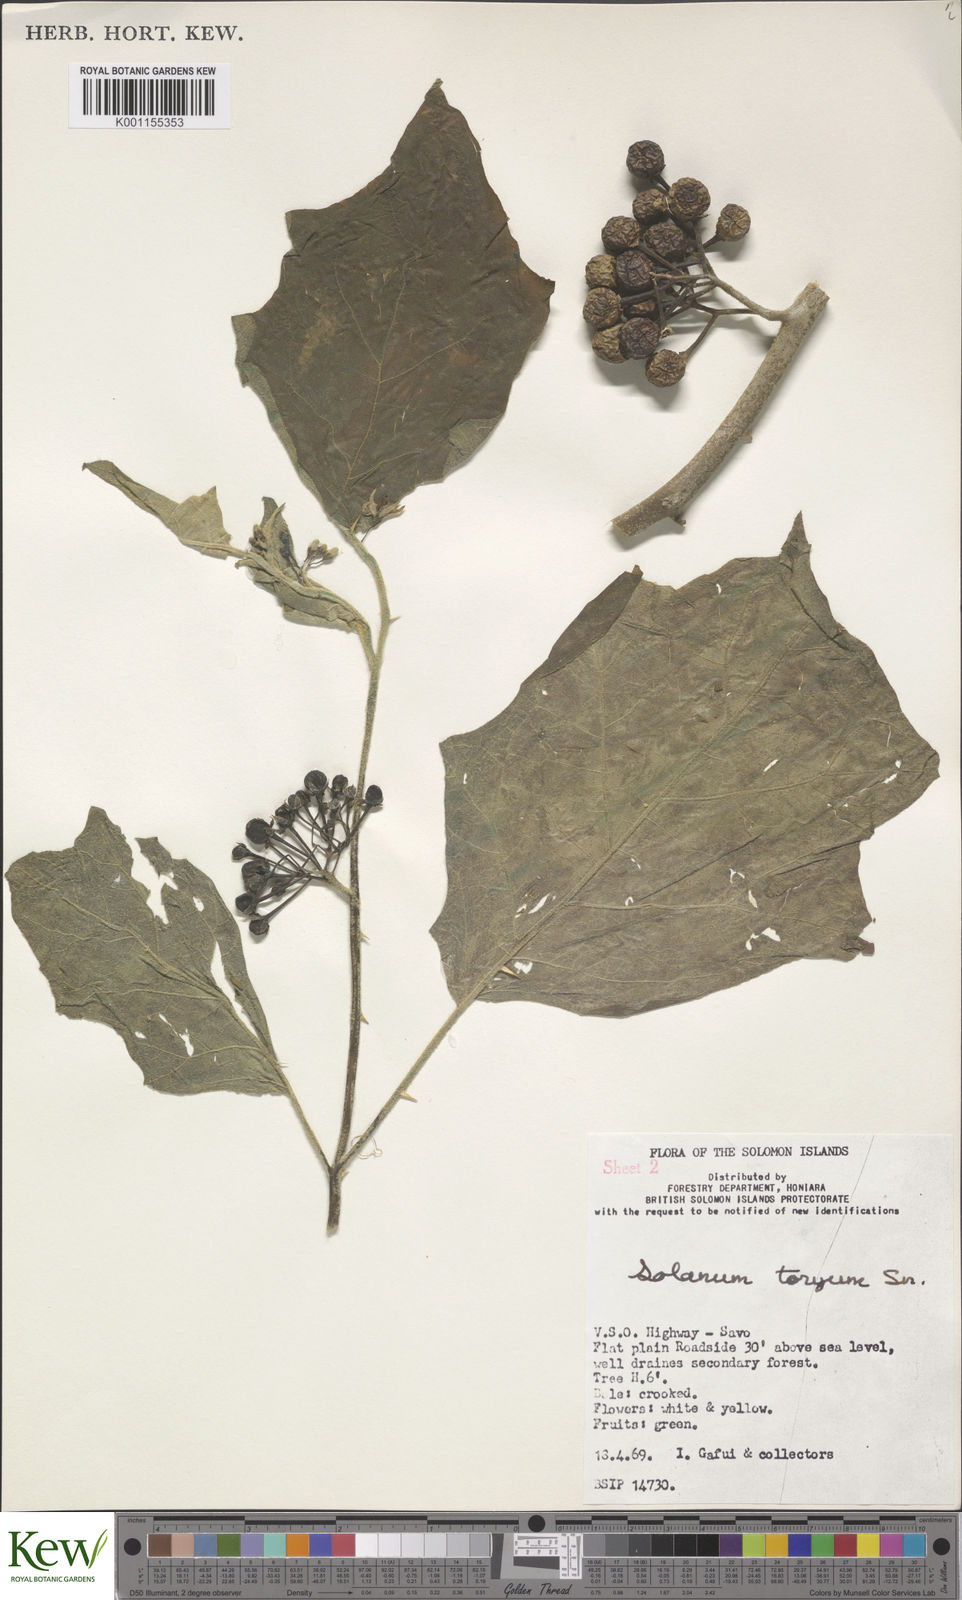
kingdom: Plantae
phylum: Tracheophyta
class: Magnoliopsida
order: Solanales
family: Solanaceae
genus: Solanum
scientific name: Solanum torvum
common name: Turkey berry
